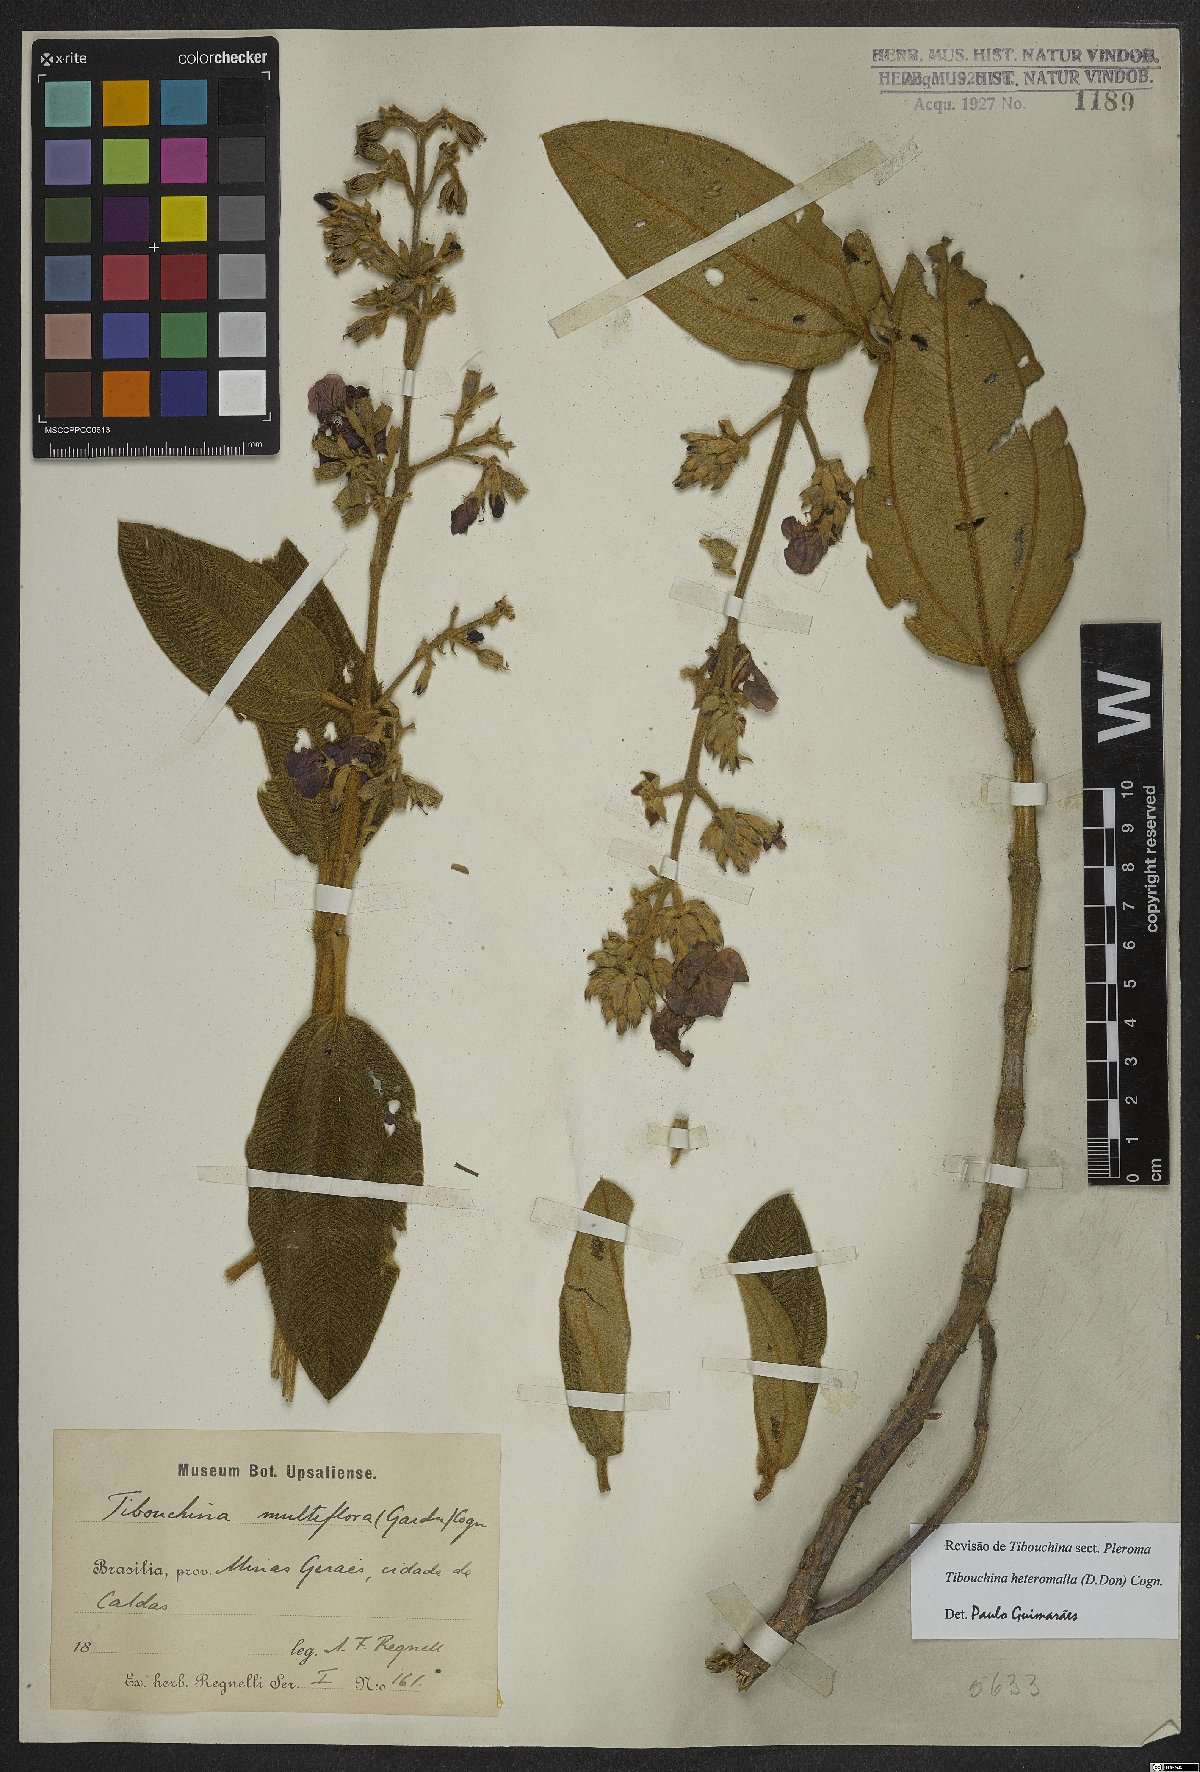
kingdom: Plantae
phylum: Tracheophyta
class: Magnoliopsida
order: Myrtales
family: Melastomataceae
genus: Pleroma
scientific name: Pleroma heteromallum
